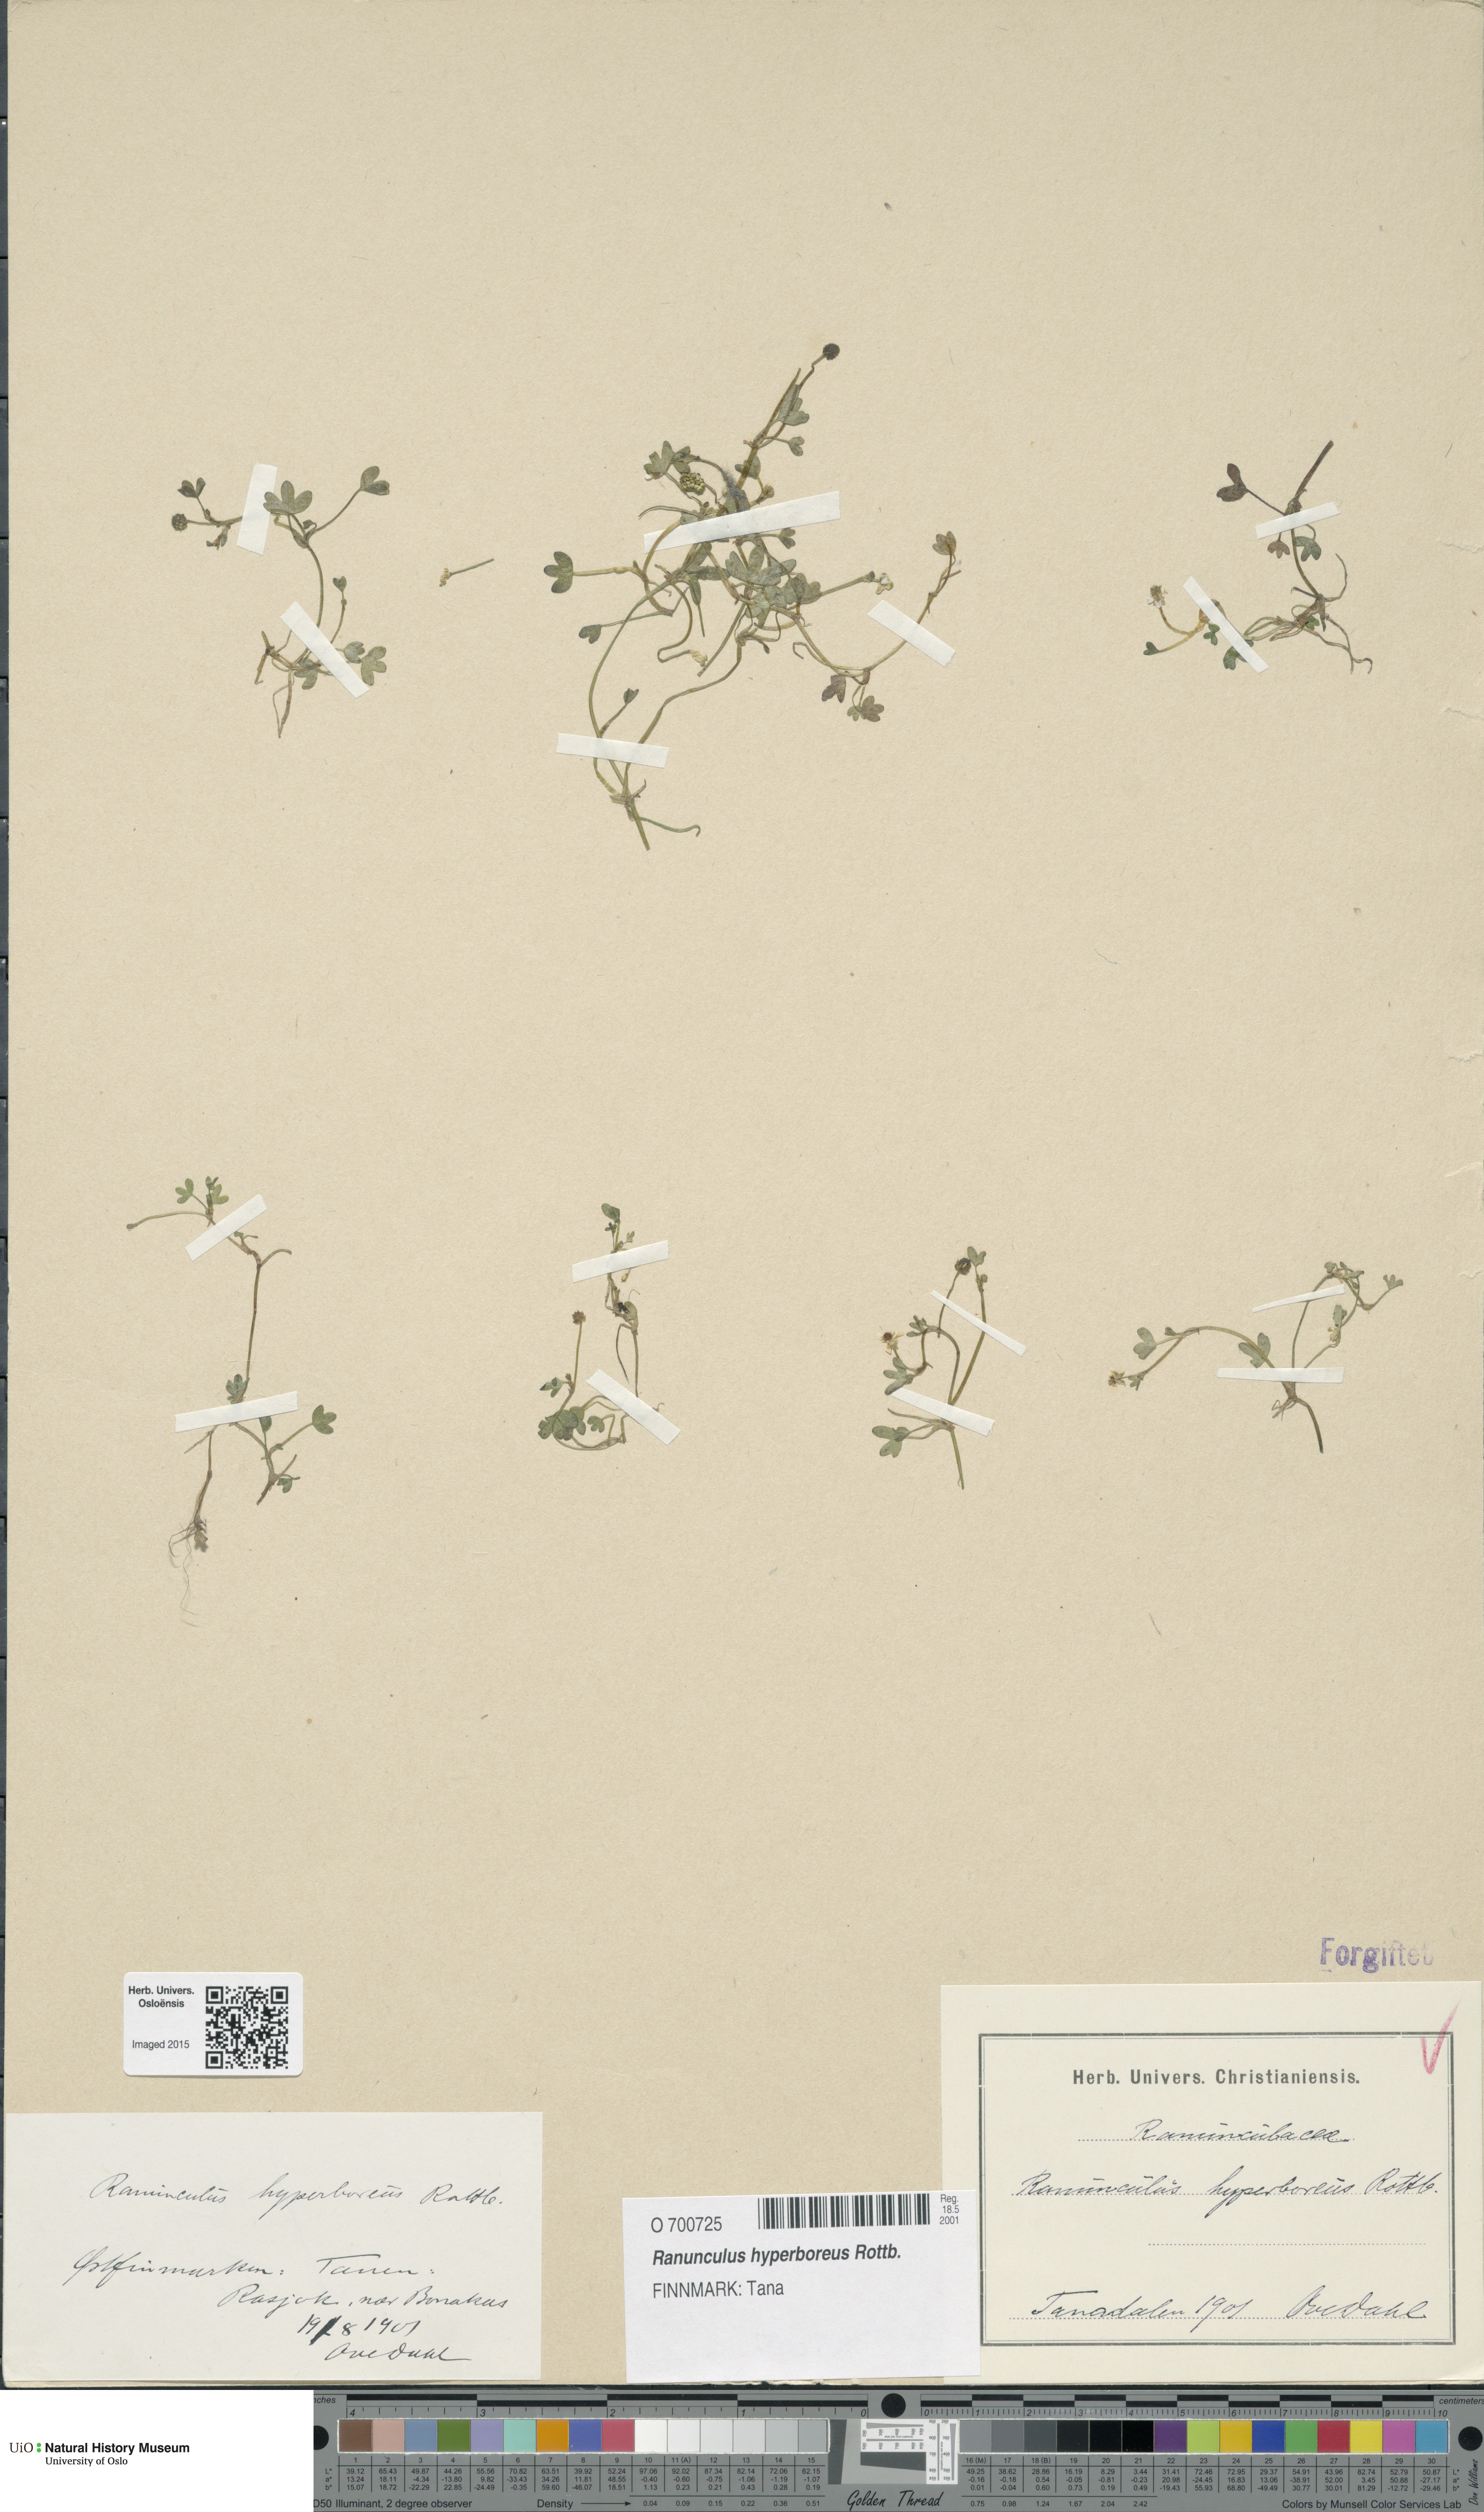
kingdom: Plantae
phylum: Tracheophyta
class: Magnoliopsida
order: Ranunculales
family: Ranunculaceae
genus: Ranunculus
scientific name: Ranunculus hyperboreus
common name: Arctic buttercup
